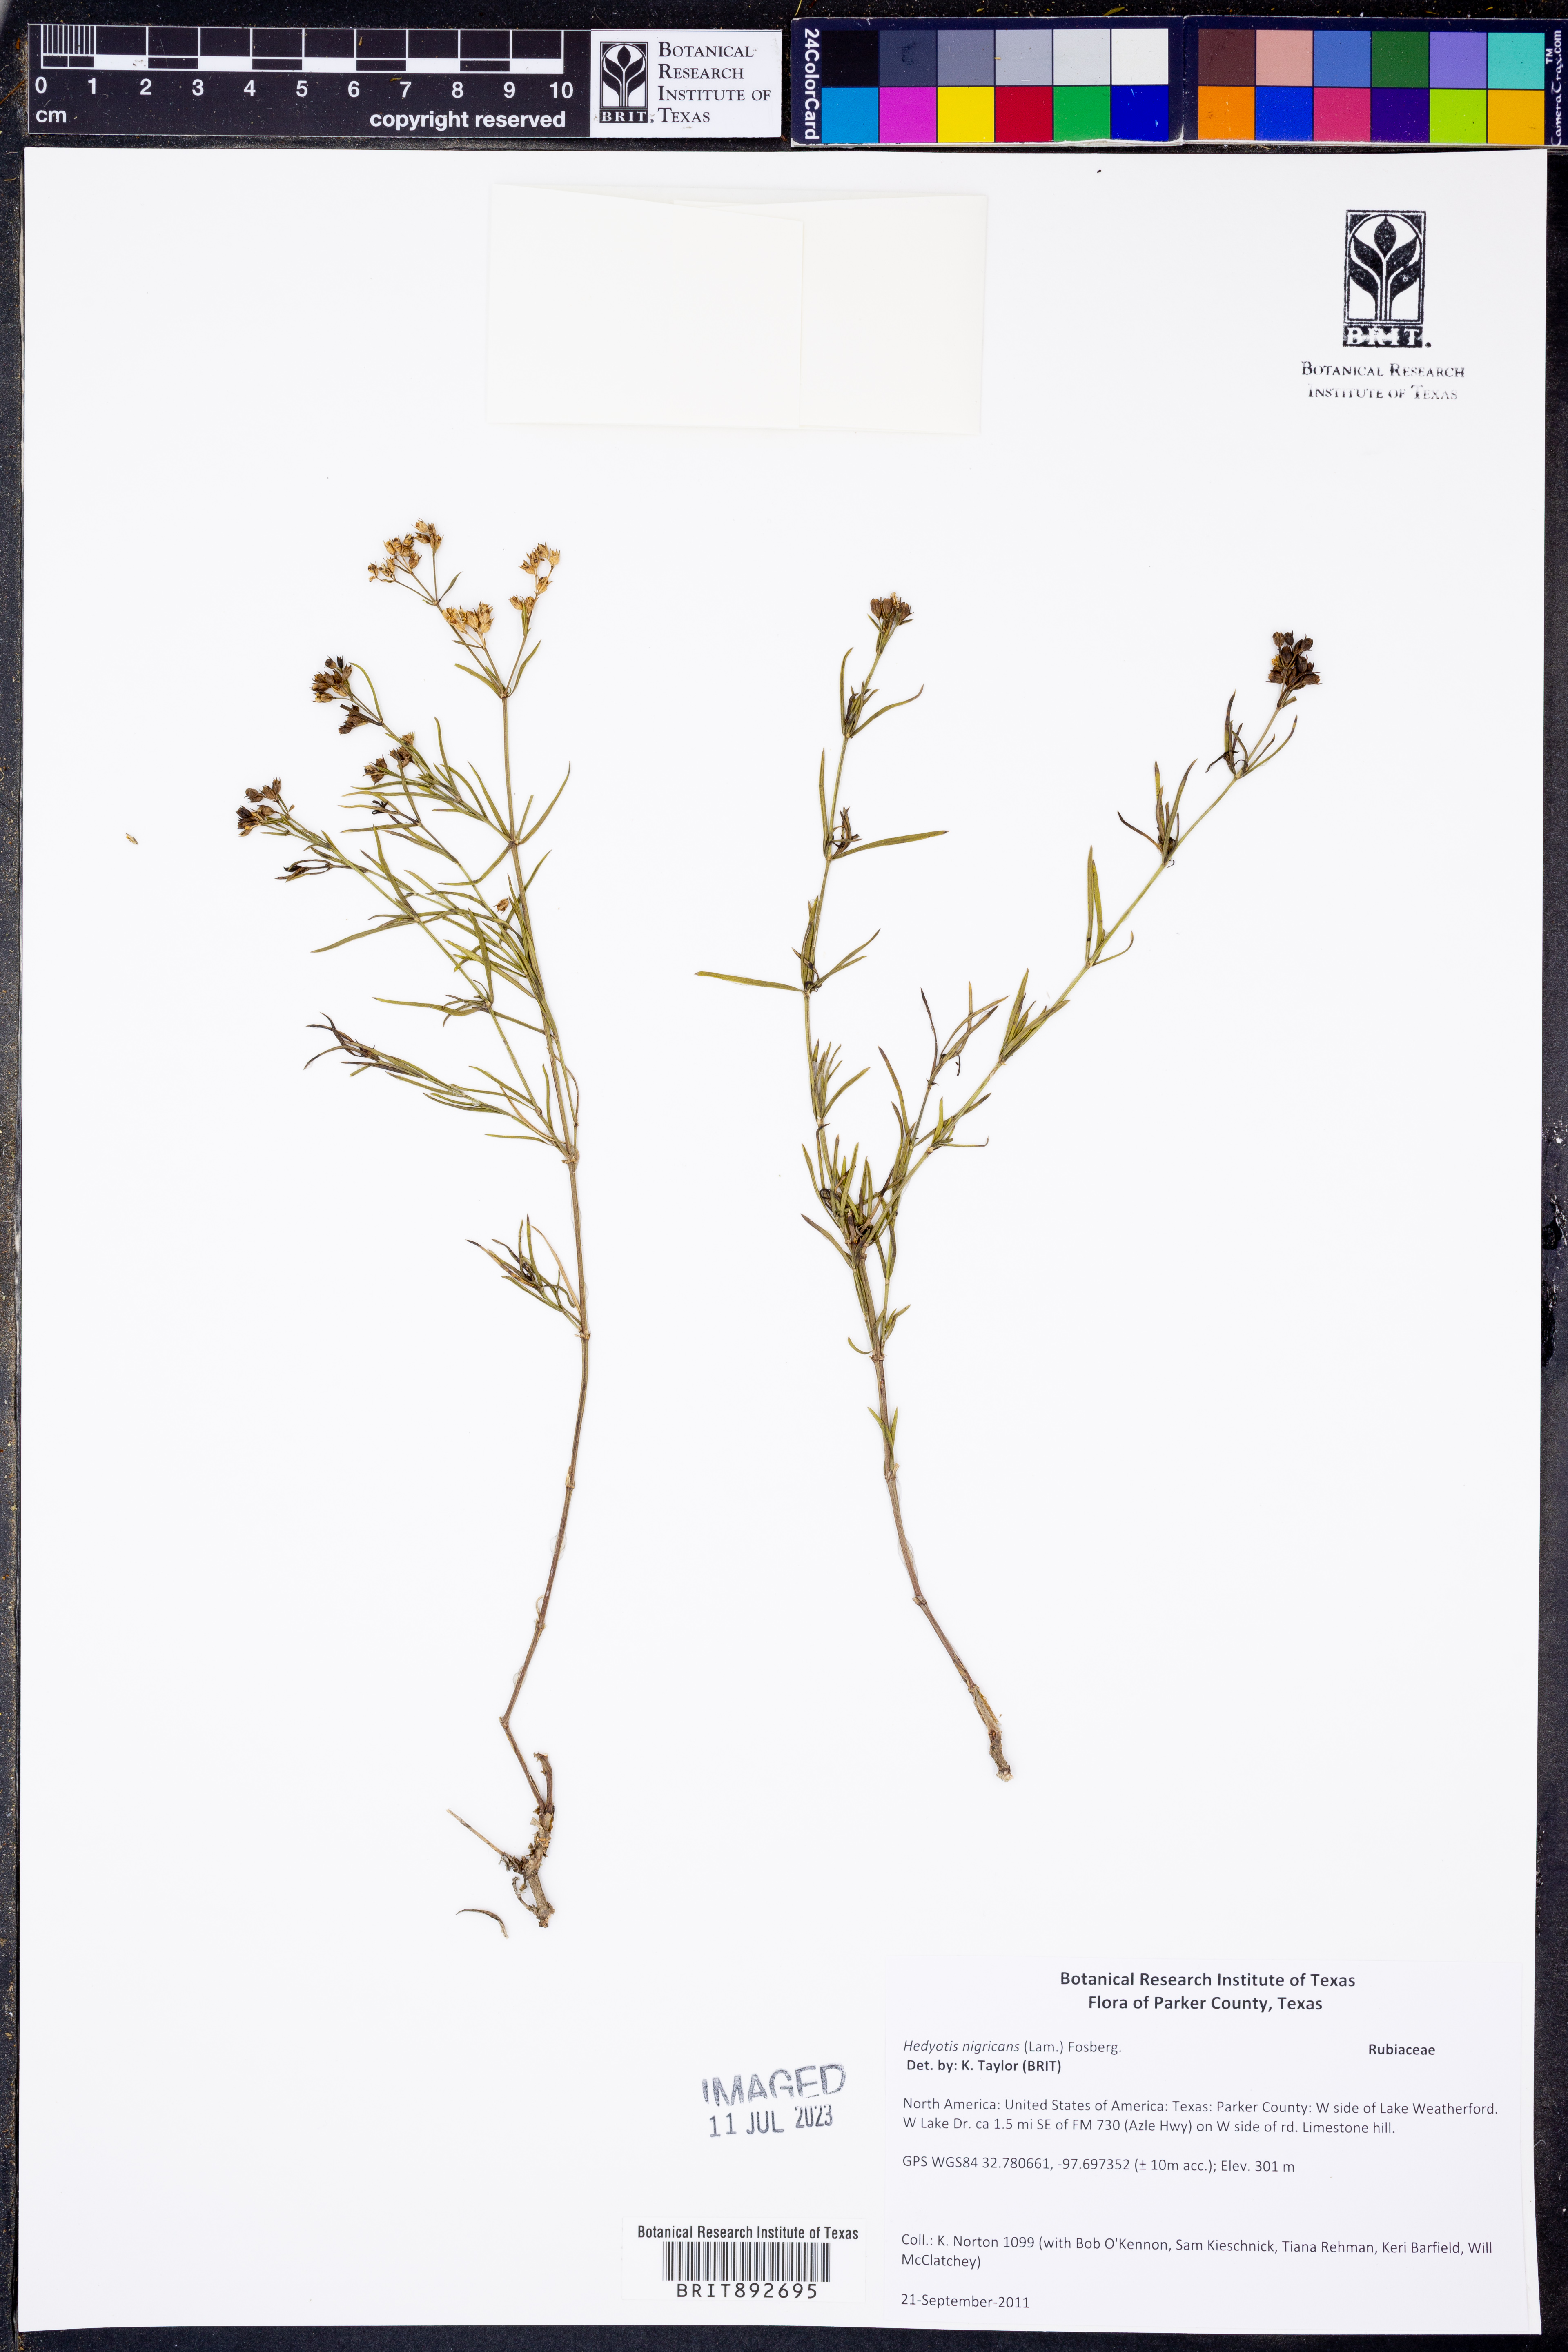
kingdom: Plantae
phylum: Tracheophyta
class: Magnoliopsida
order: Gentianales
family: Rubiaceae
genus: Stenaria
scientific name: Stenaria nigricans
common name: Diamondflowers
